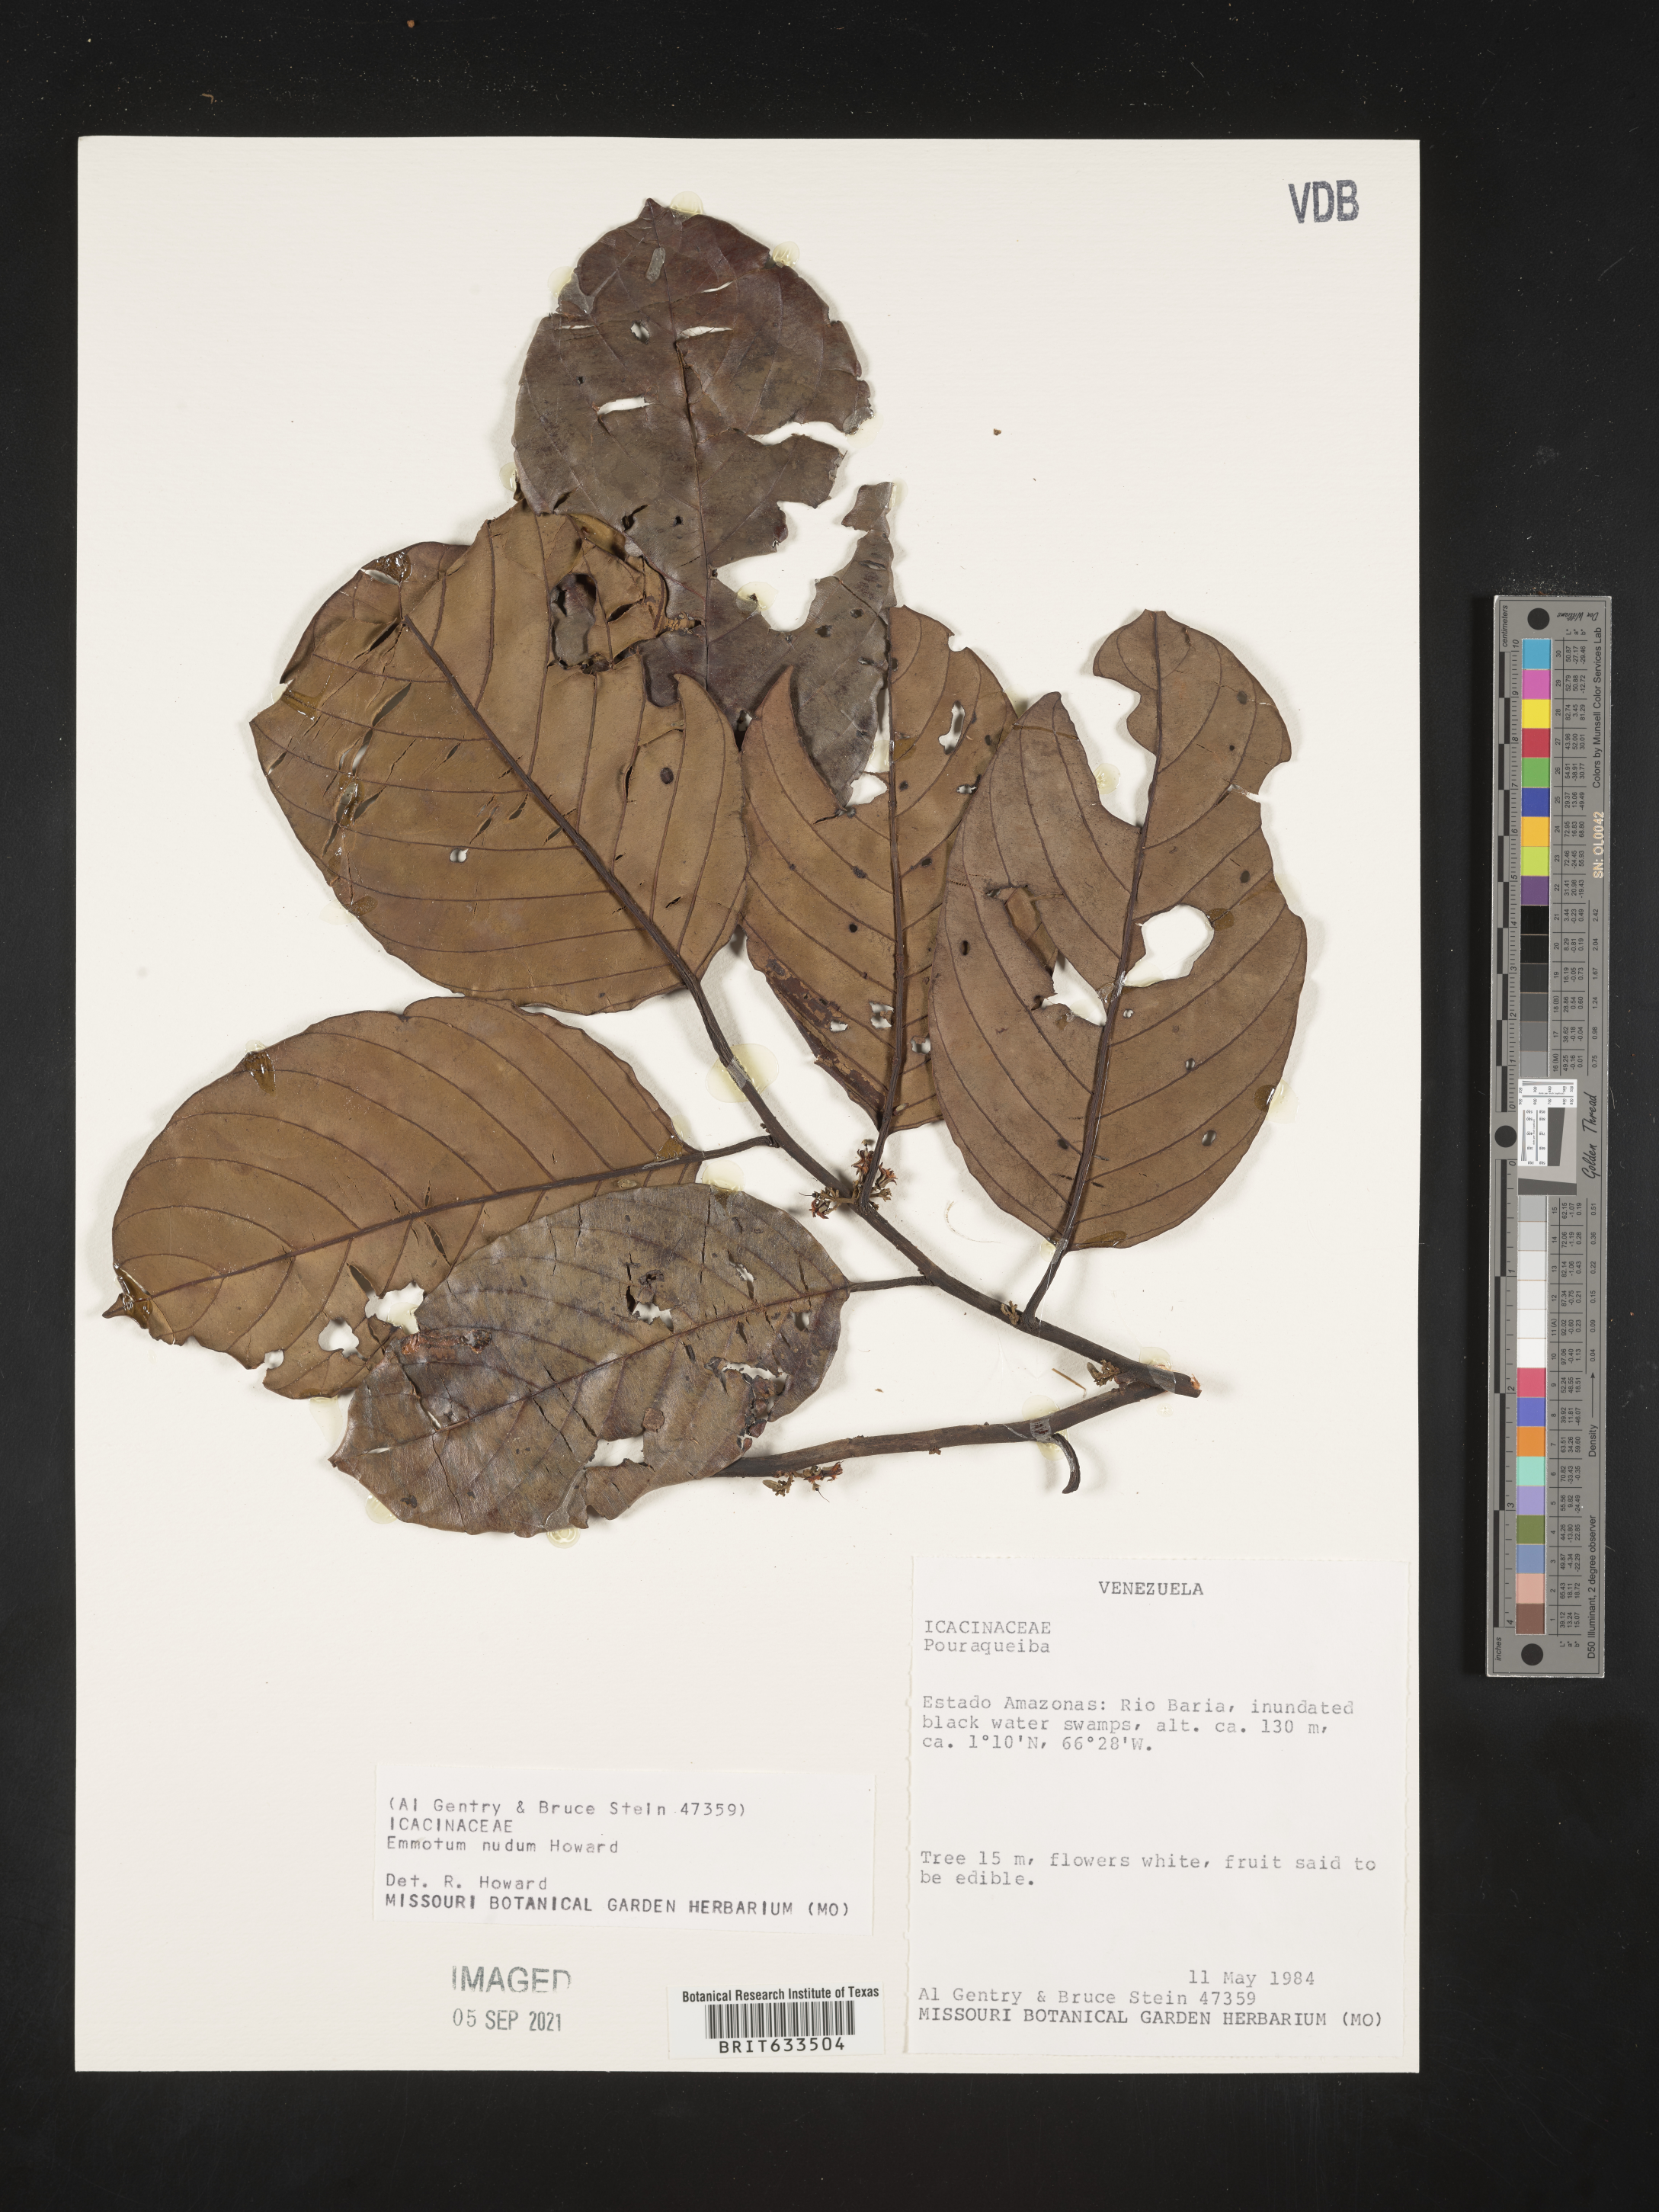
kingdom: Plantae
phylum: Tracheophyta
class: Magnoliopsida
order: Icacinales
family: Icacinaceae
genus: Emmotum
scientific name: Emmotum
